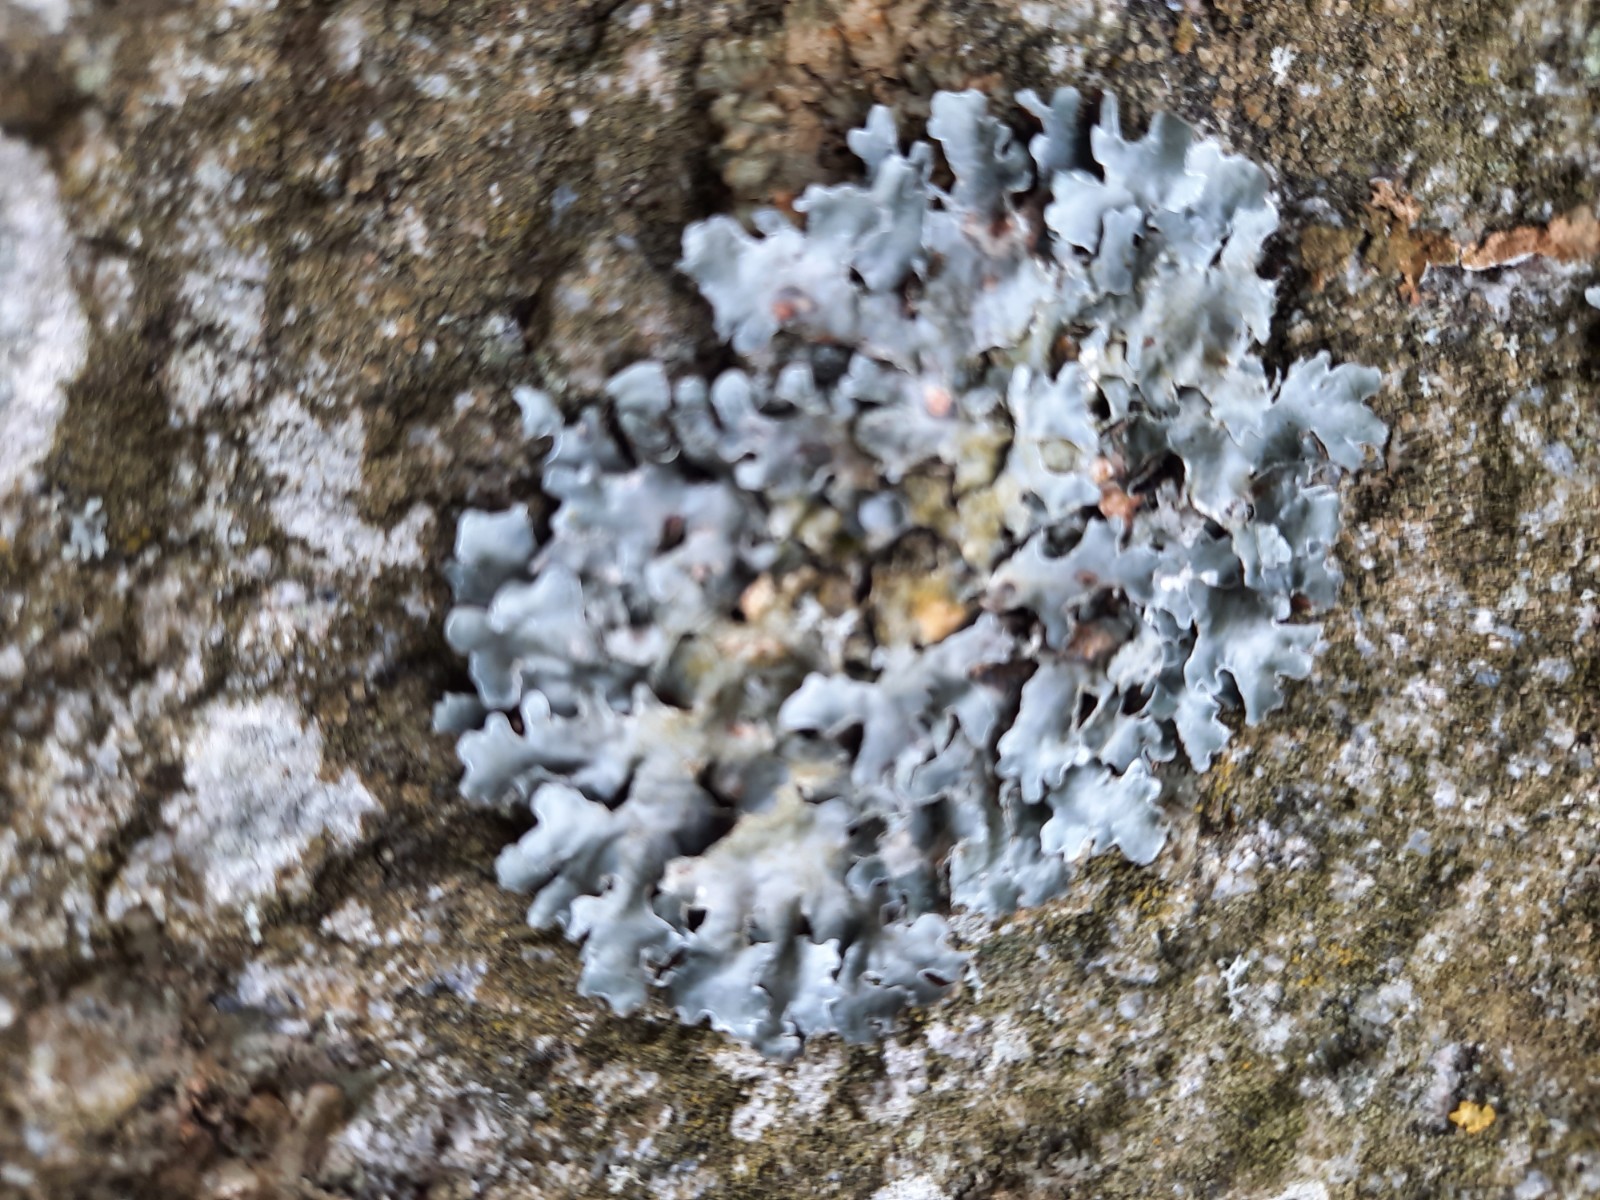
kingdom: Fungi
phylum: Ascomycota
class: Lecanoromycetes
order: Lecanorales
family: Parmeliaceae
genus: Parmelia
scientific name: Parmelia sulcata
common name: rynket skållav
